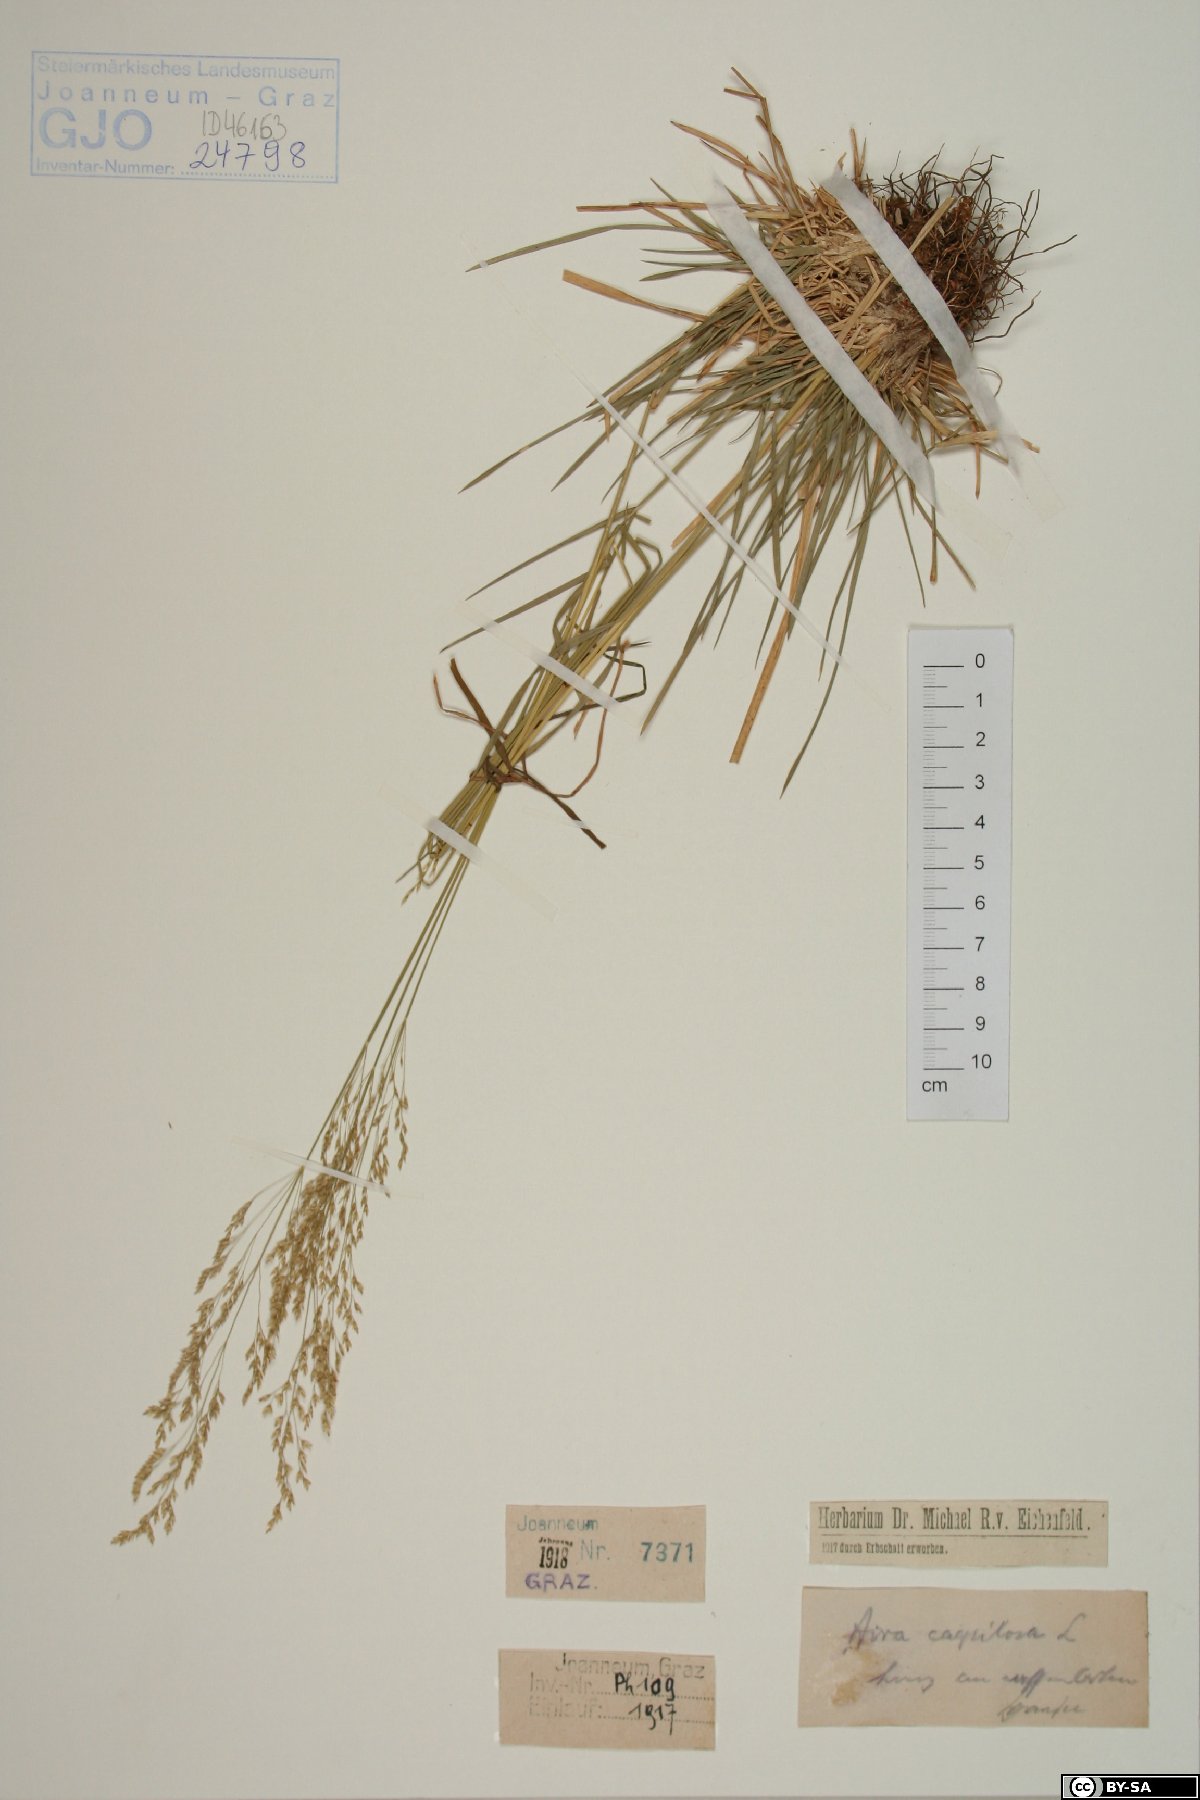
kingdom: Plantae
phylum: Tracheophyta
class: Liliopsida
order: Poales
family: Poaceae
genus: Deschampsia
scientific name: Deschampsia cespitosa
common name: Tufted hair-grass
